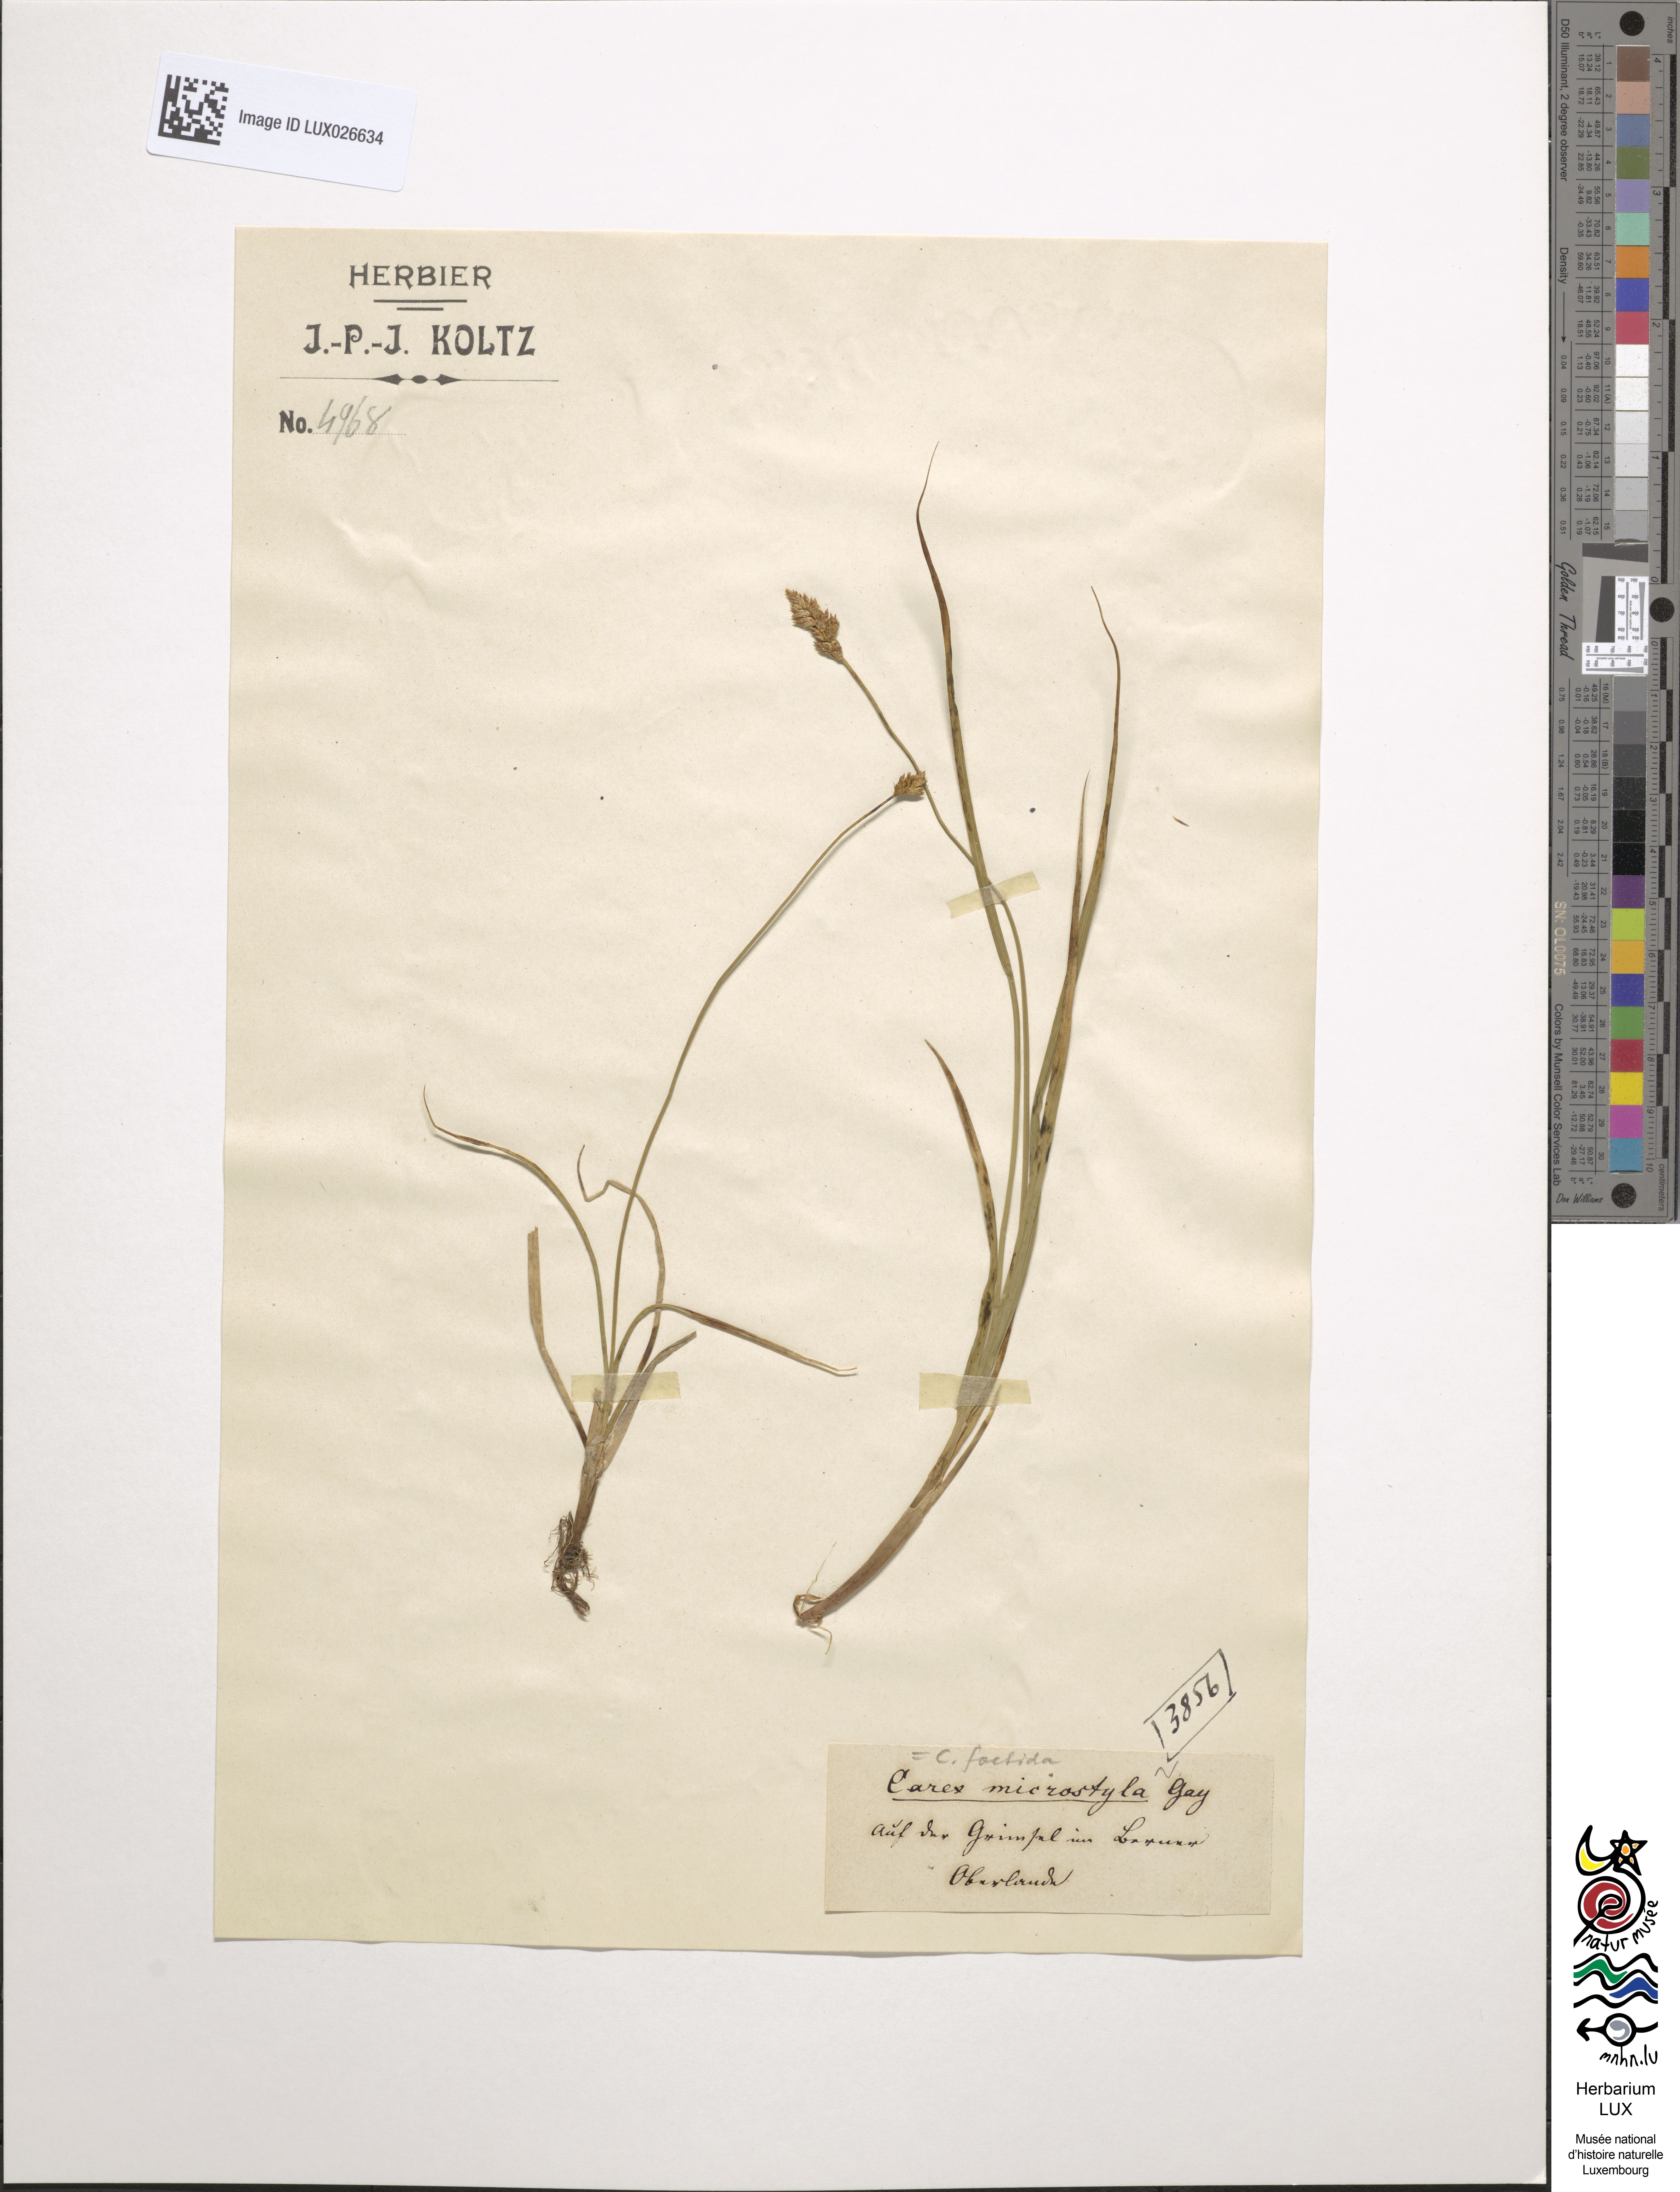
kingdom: Plantae
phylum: Tracheophyta
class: Liliopsida
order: Poales
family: Cyperaceae
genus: Carex
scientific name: Carex microstyla
